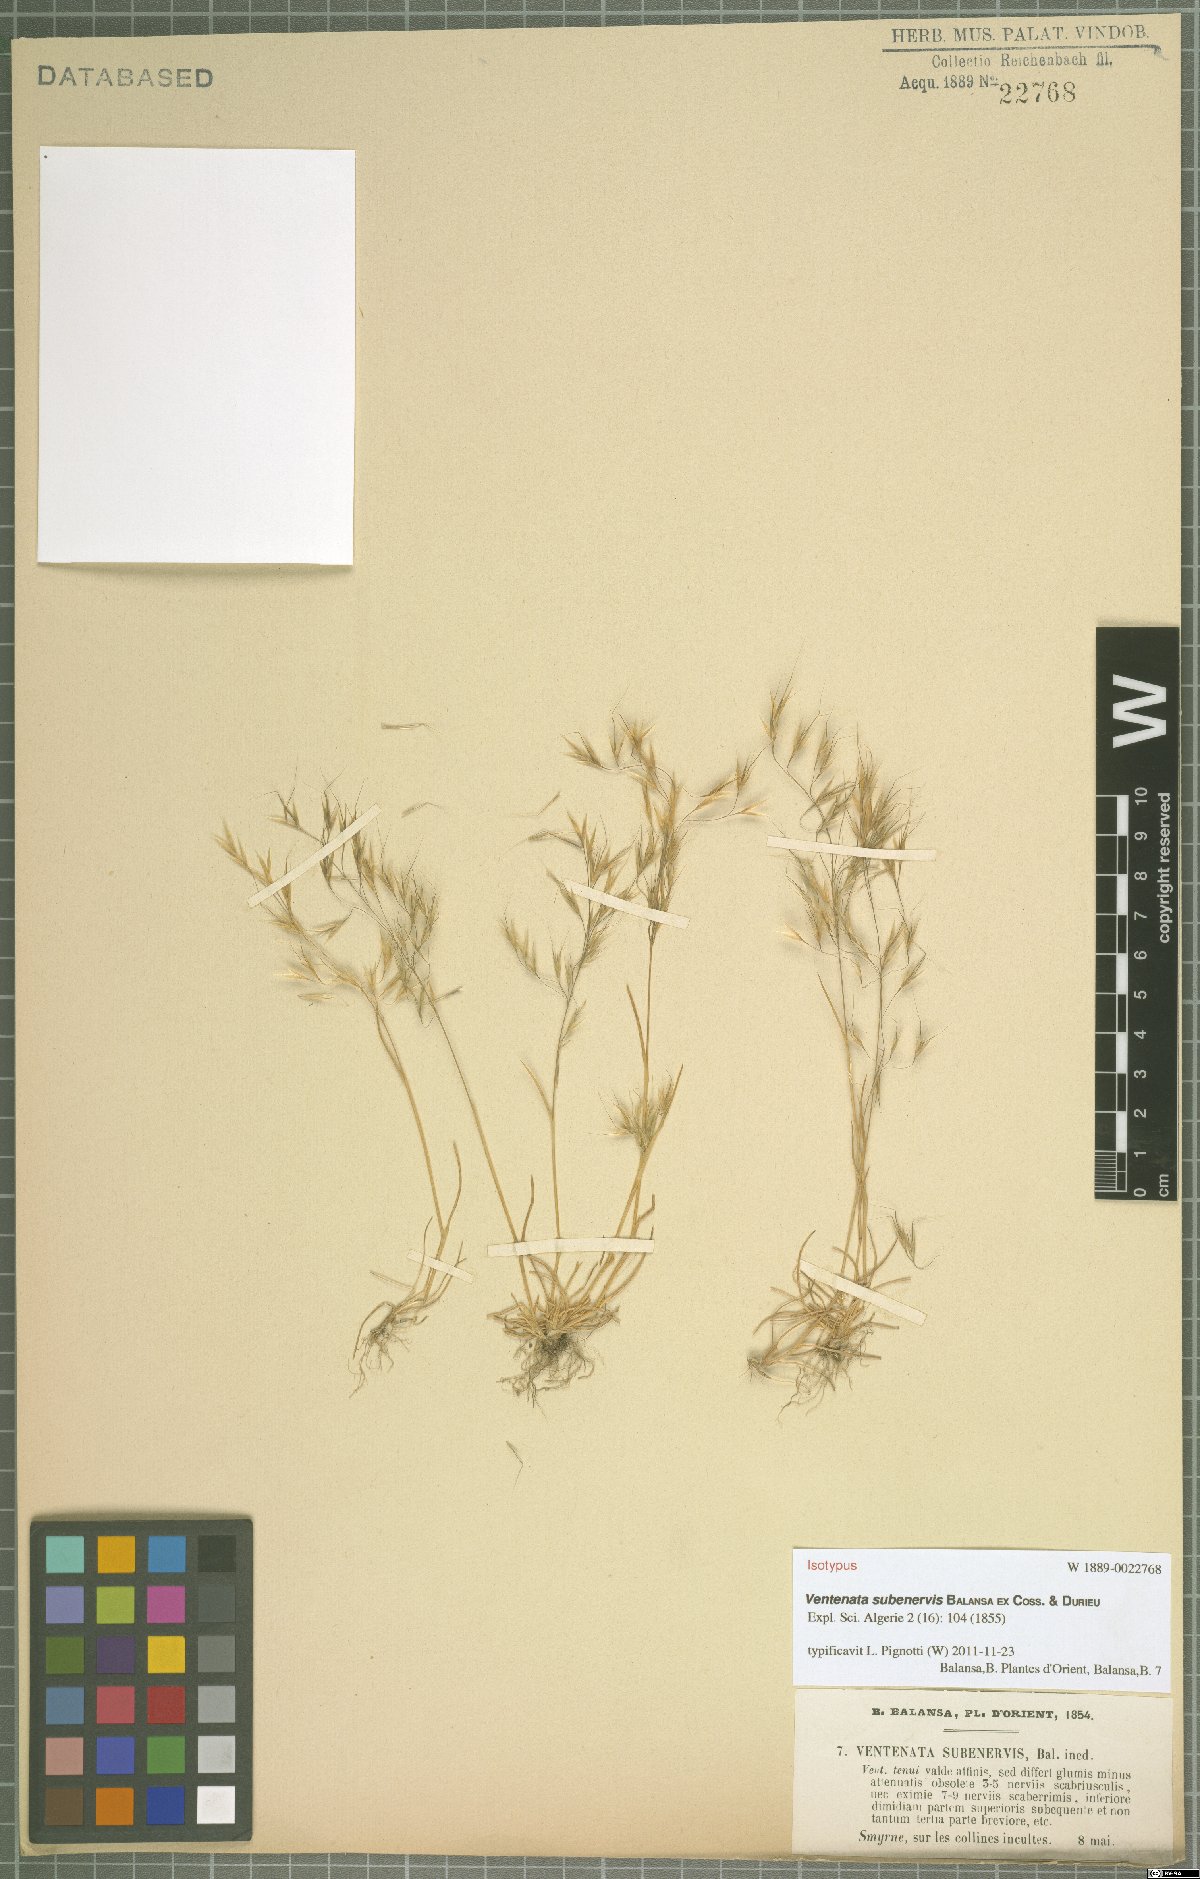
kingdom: Plantae
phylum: Tracheophyta
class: Liliopsida
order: Poales
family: Poaceae
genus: Ventenata
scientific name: Ventenata subenervis
